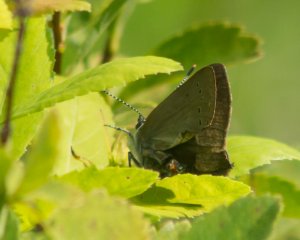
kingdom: Animalia
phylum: Arthropoda
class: Insecta
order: Lepidoptera
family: Lycaenidae
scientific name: Lycaenidae
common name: Gossamerwings
